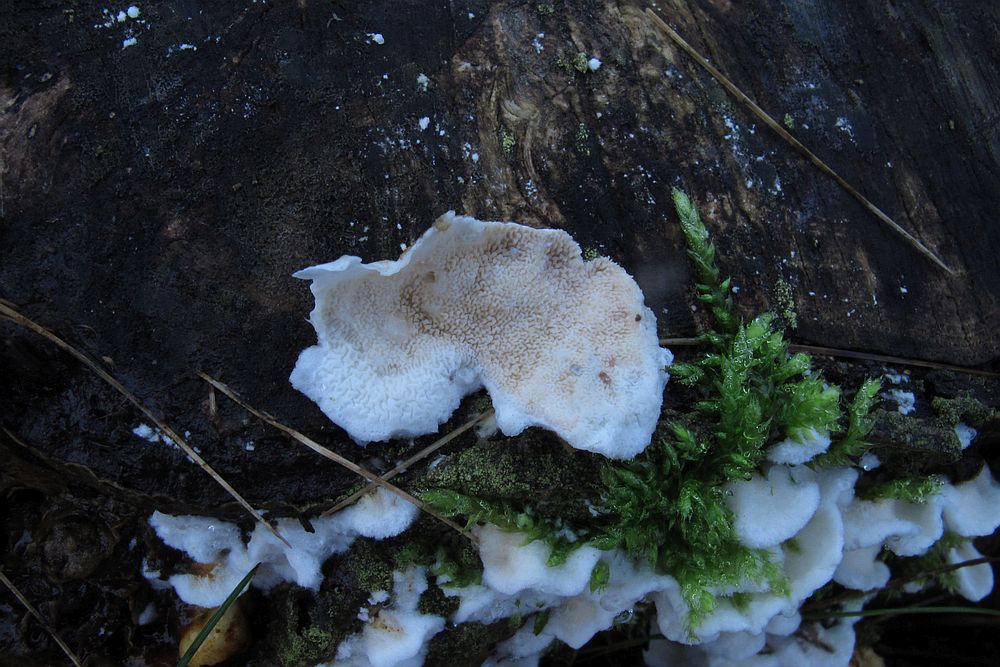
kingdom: Fungi
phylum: Basidiomycota
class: Agaricomycetes
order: Polyporales
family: Irpicaceae
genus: Byssomerulius
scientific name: Byssomerulius corium
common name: læder-åresvamp
